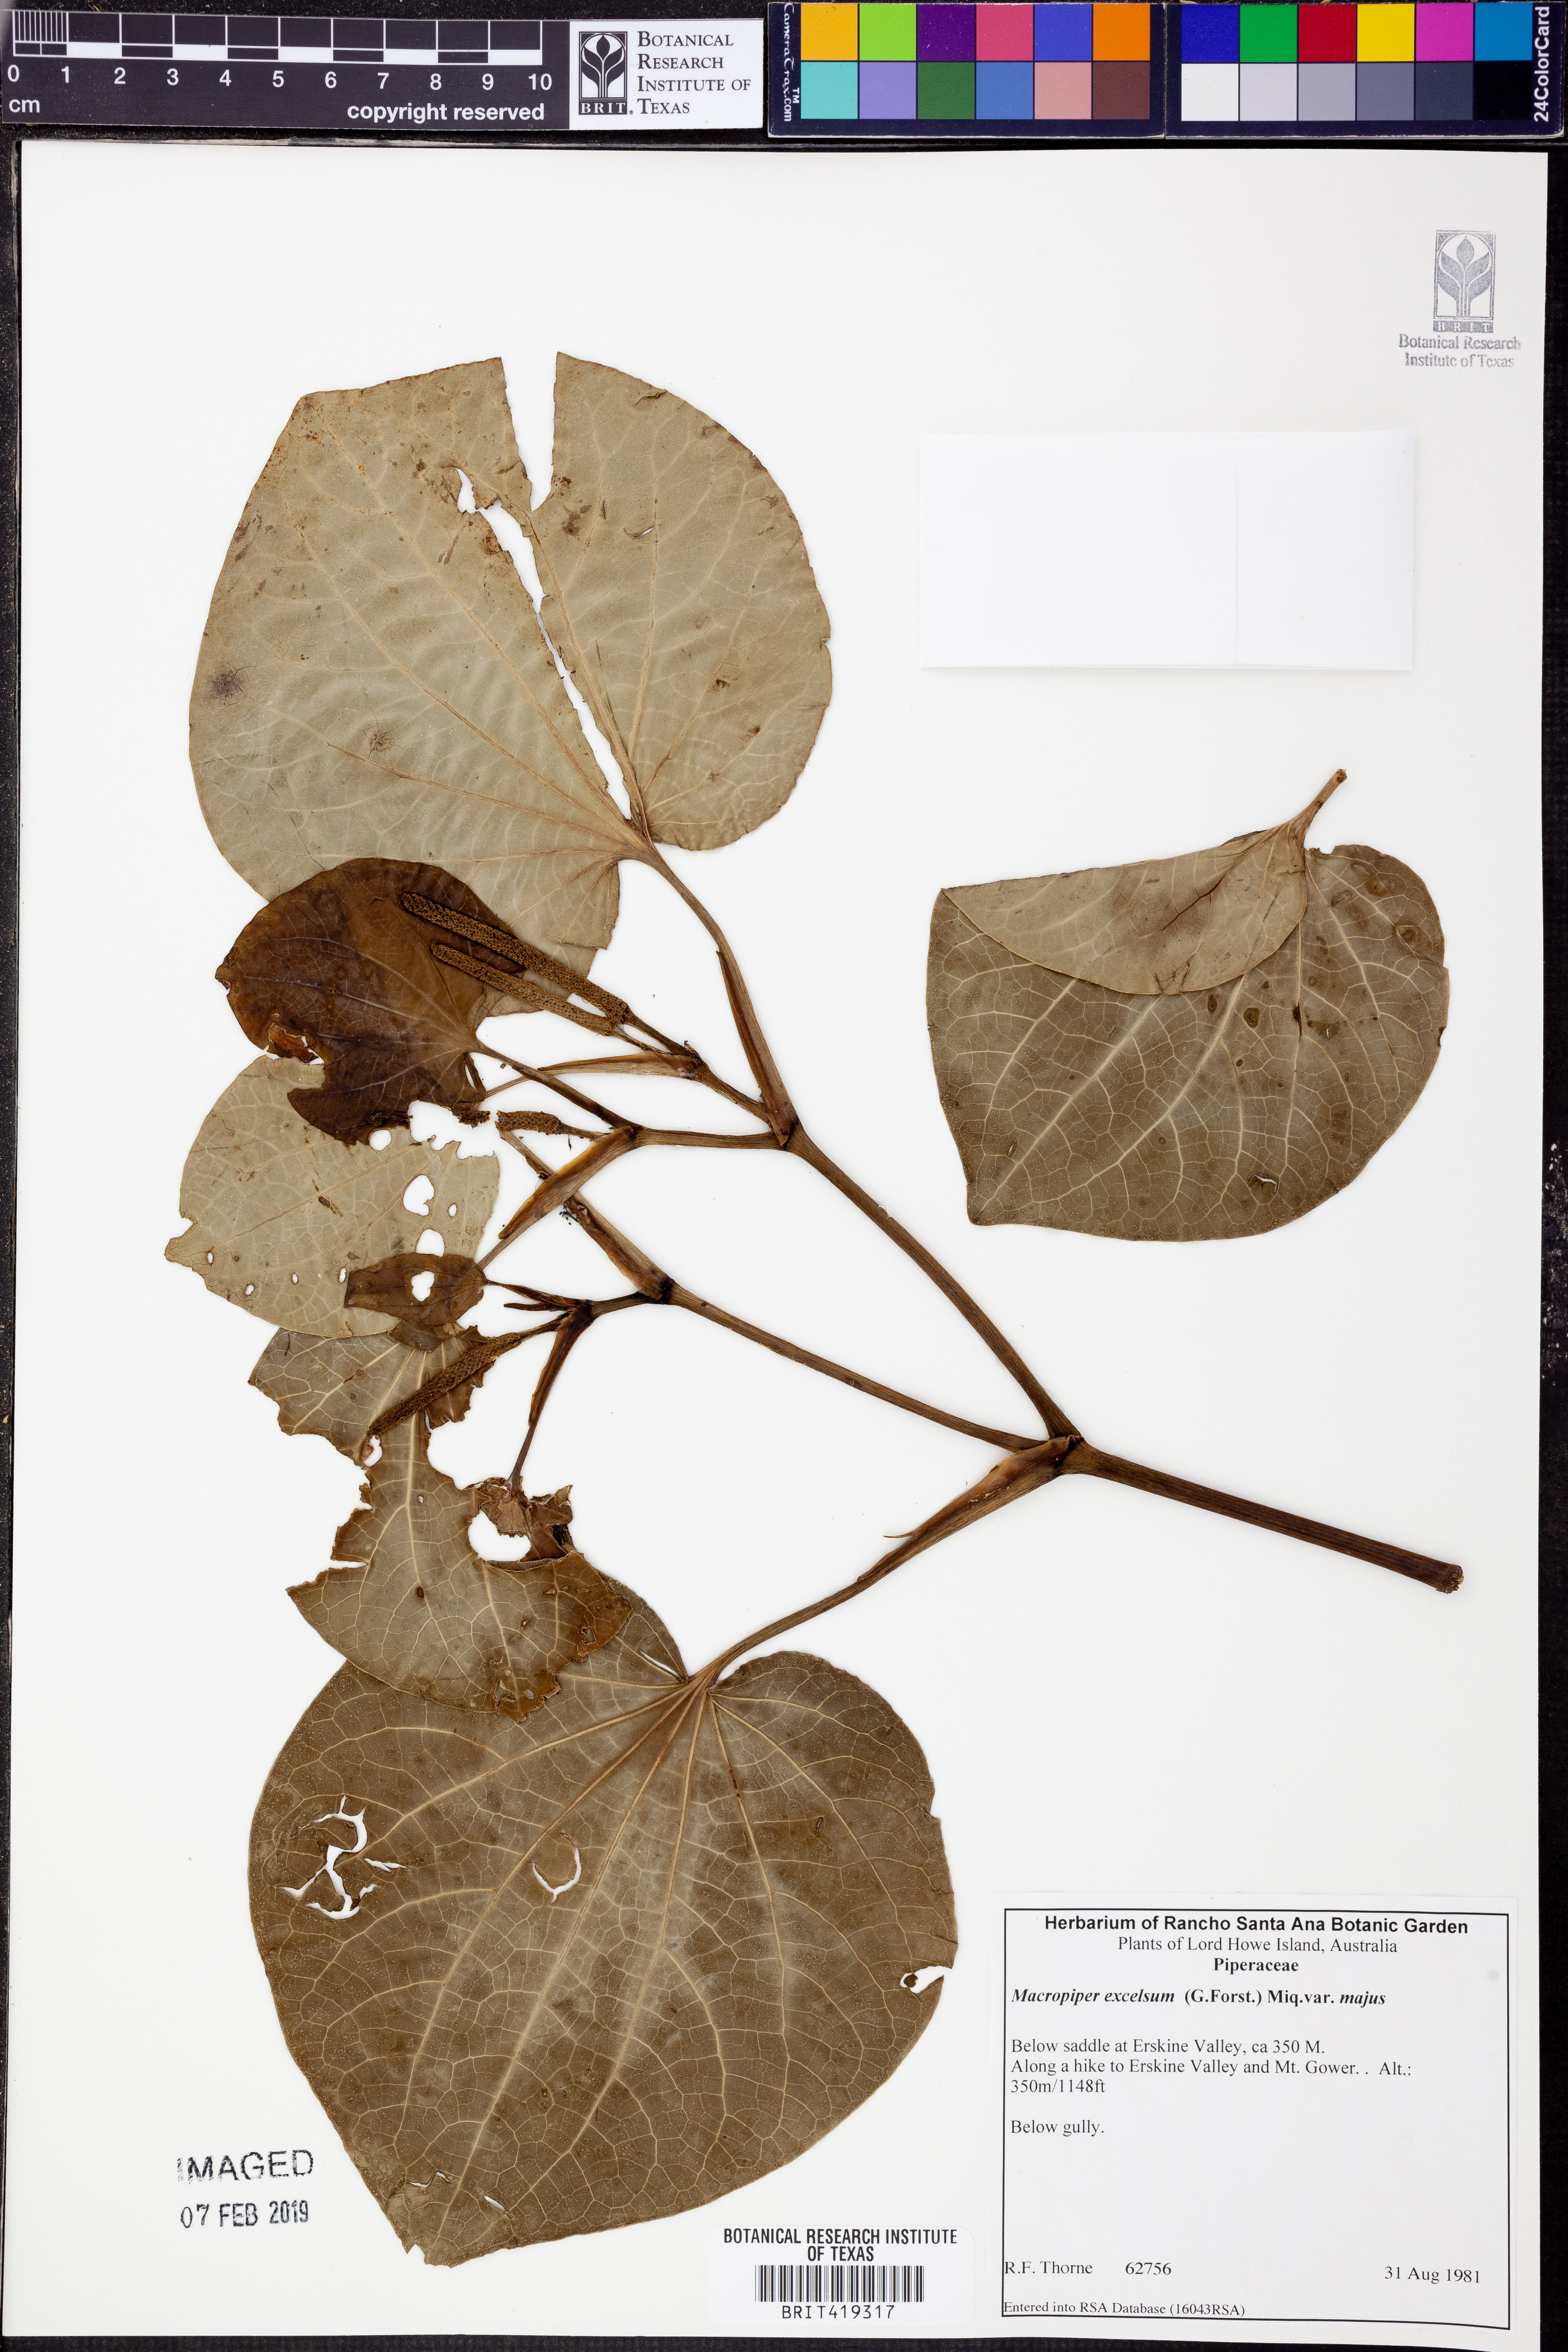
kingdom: Plantae
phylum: Tracheophyta
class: Magnoliopsida
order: Piperales
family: Piperaceae
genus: Macropiper
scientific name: Macropiper excelsum
